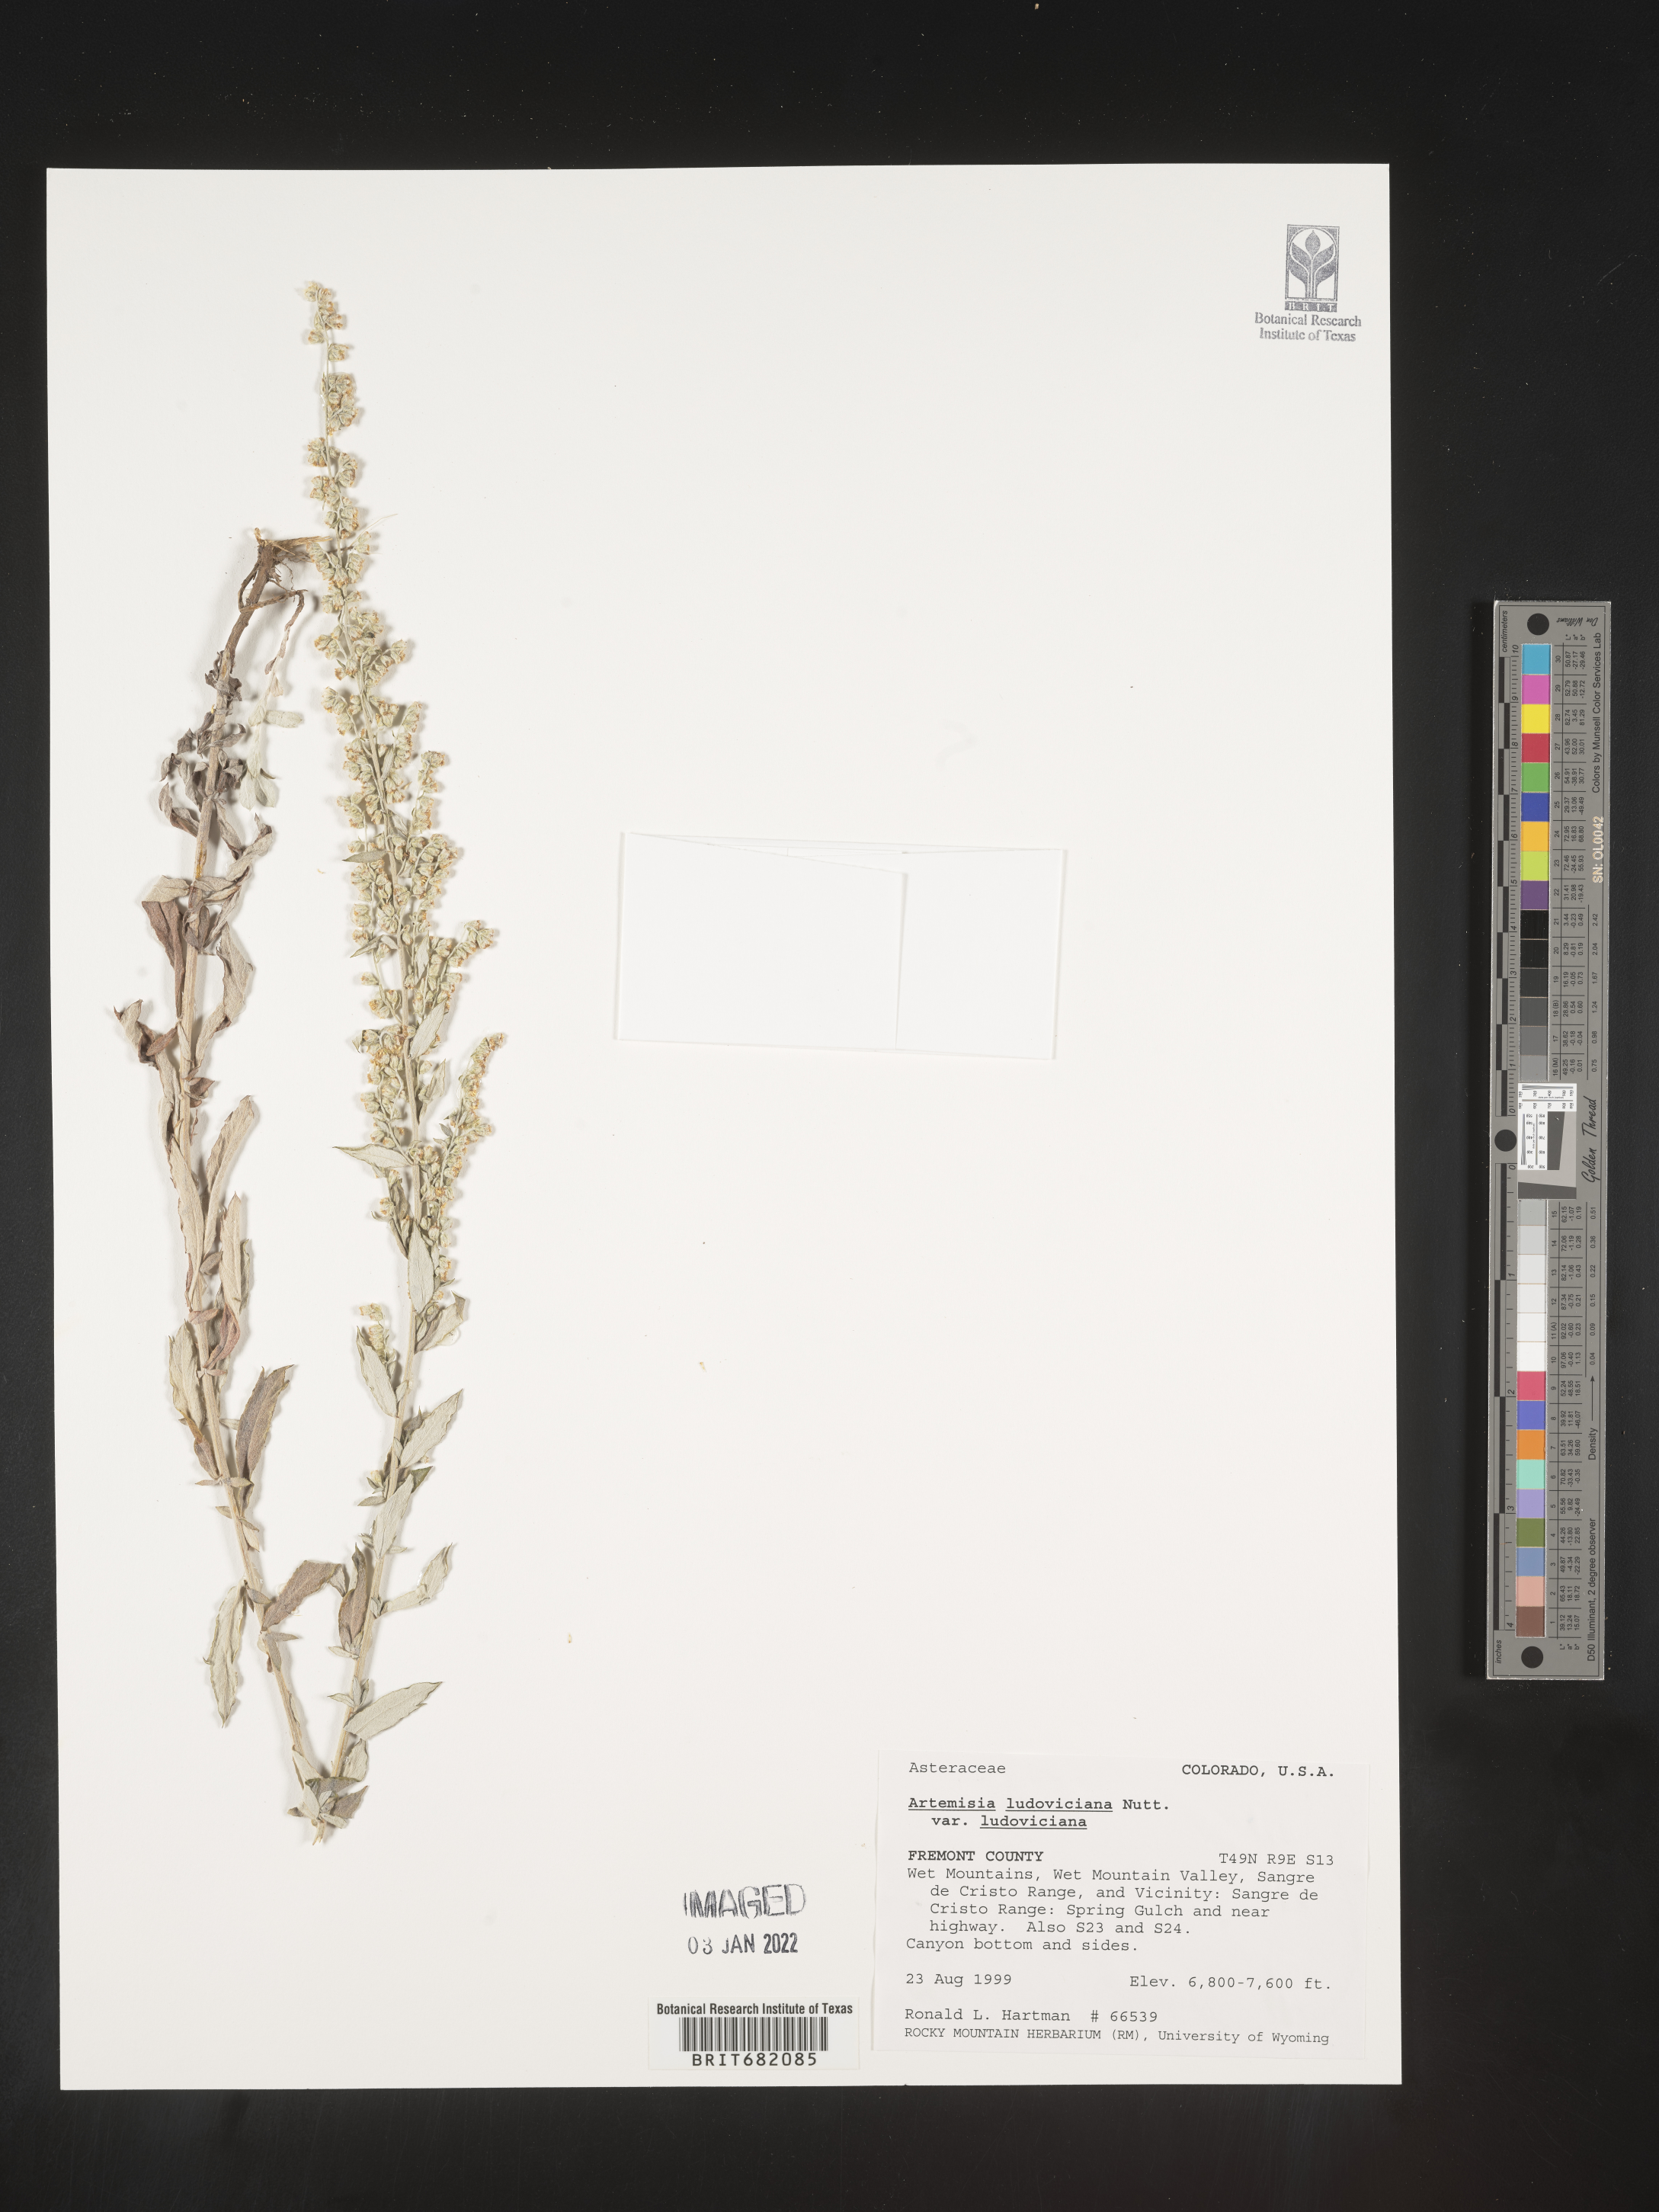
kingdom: Plantae
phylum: Tracheophyta
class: Magnoliopsida
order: Asterales
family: Asteraceae
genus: Artemisia
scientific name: Artemisia ludoviciana
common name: Western mugwort
